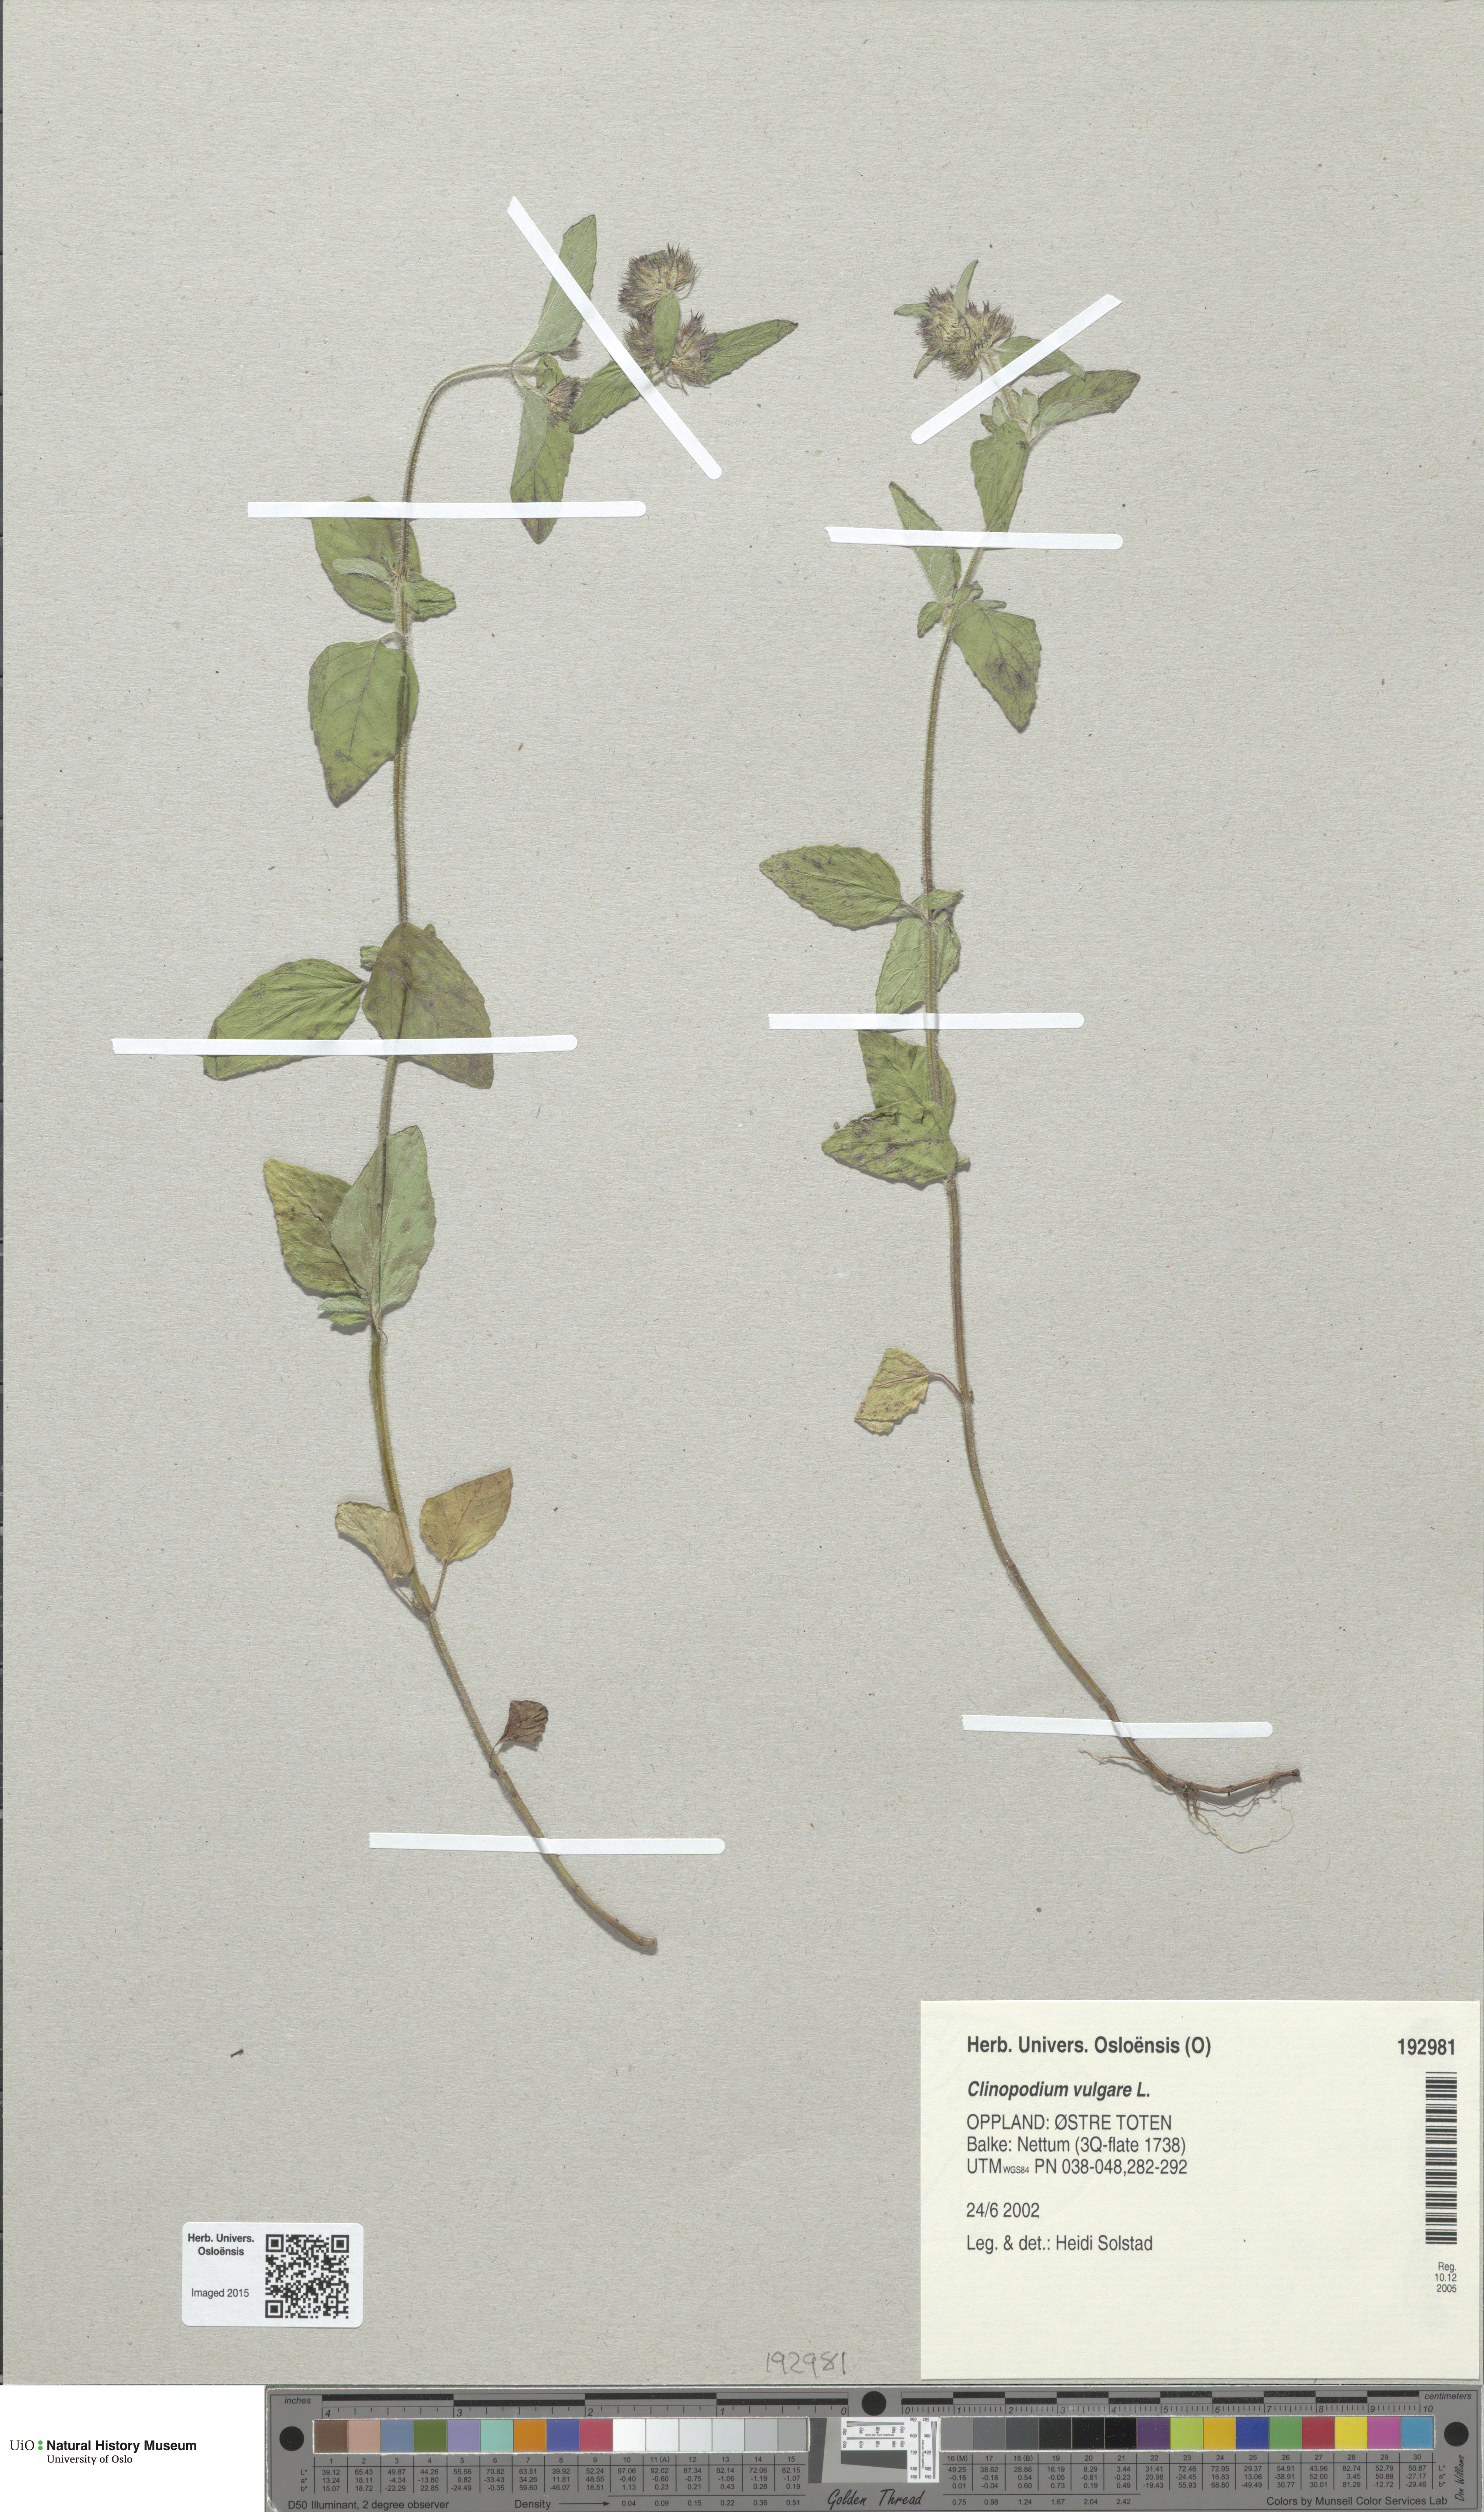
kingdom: Plantae
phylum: Tracheophyta
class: Magnoliopsida
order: Lamiales
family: Lamiaceae
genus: Clinopodium
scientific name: Clinopodium vulgare
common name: Wild basil
